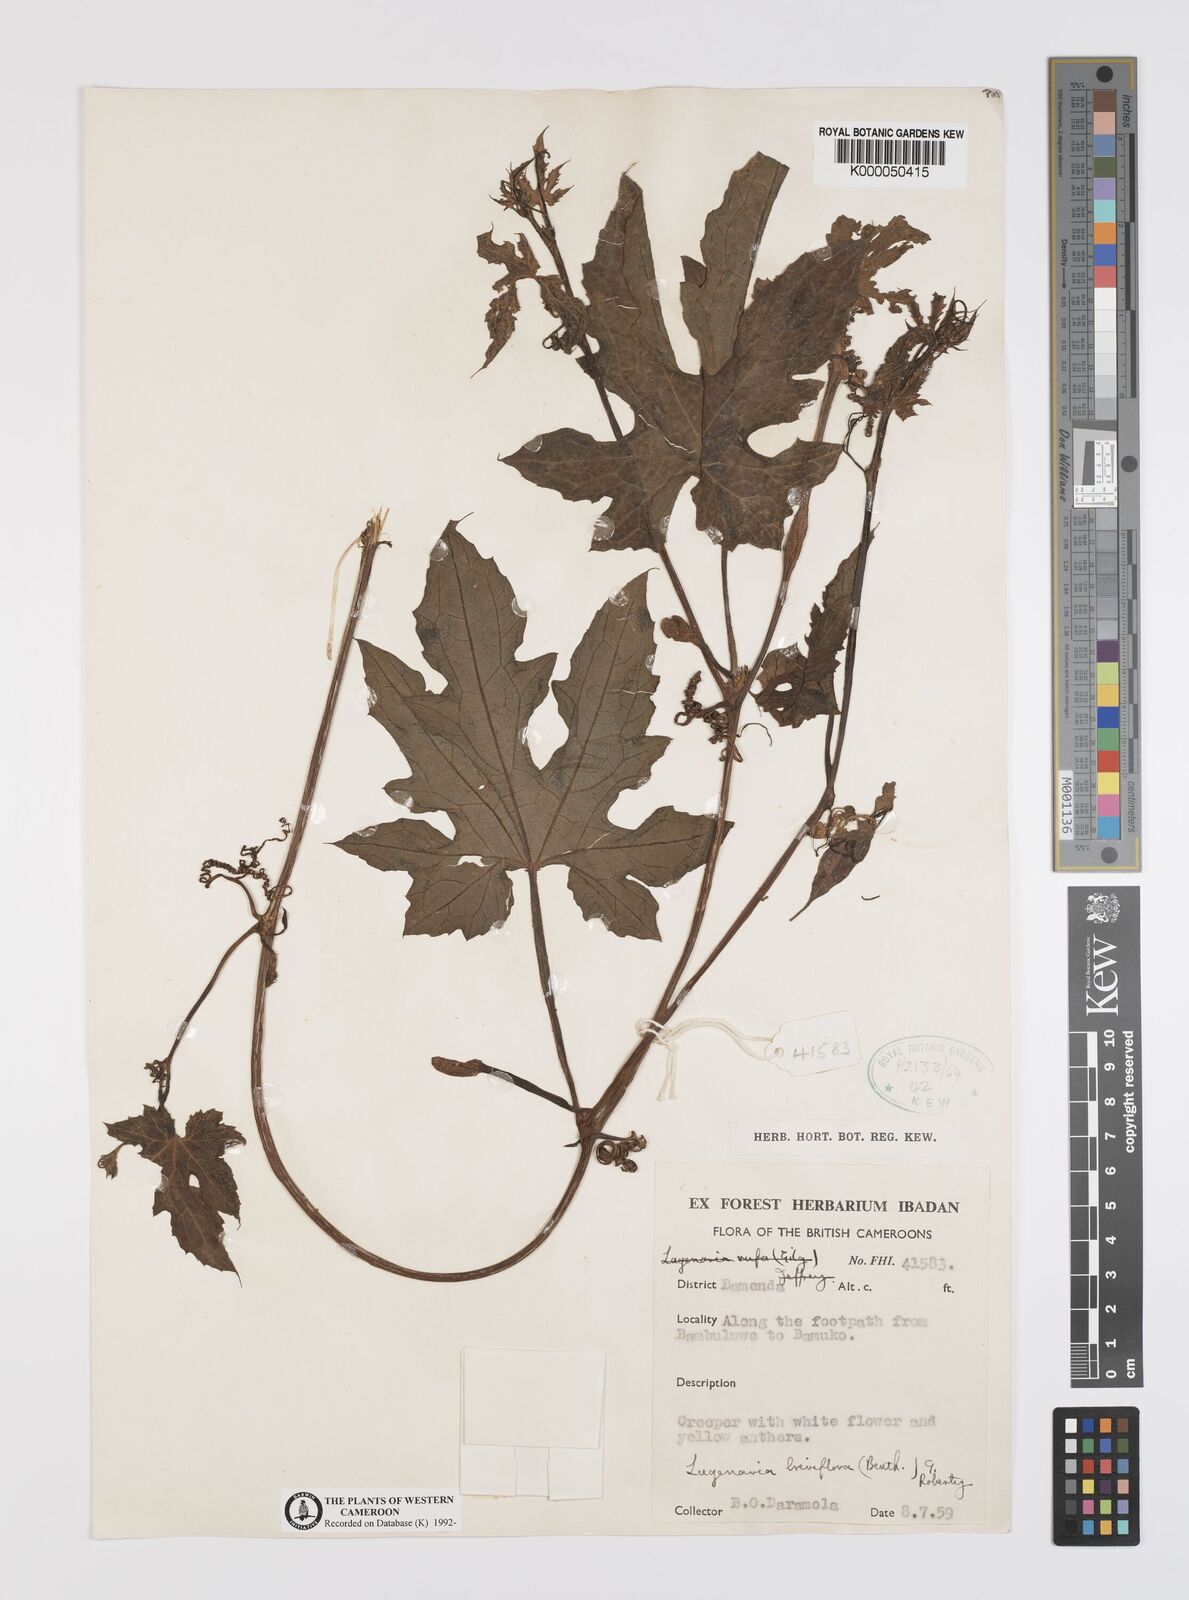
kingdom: Plantae
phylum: Tracheophyta
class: Magnoliopsida
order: Cucurbitales
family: Cucurbitaceae
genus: Lagenaria
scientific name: Lagenaria breviflora
